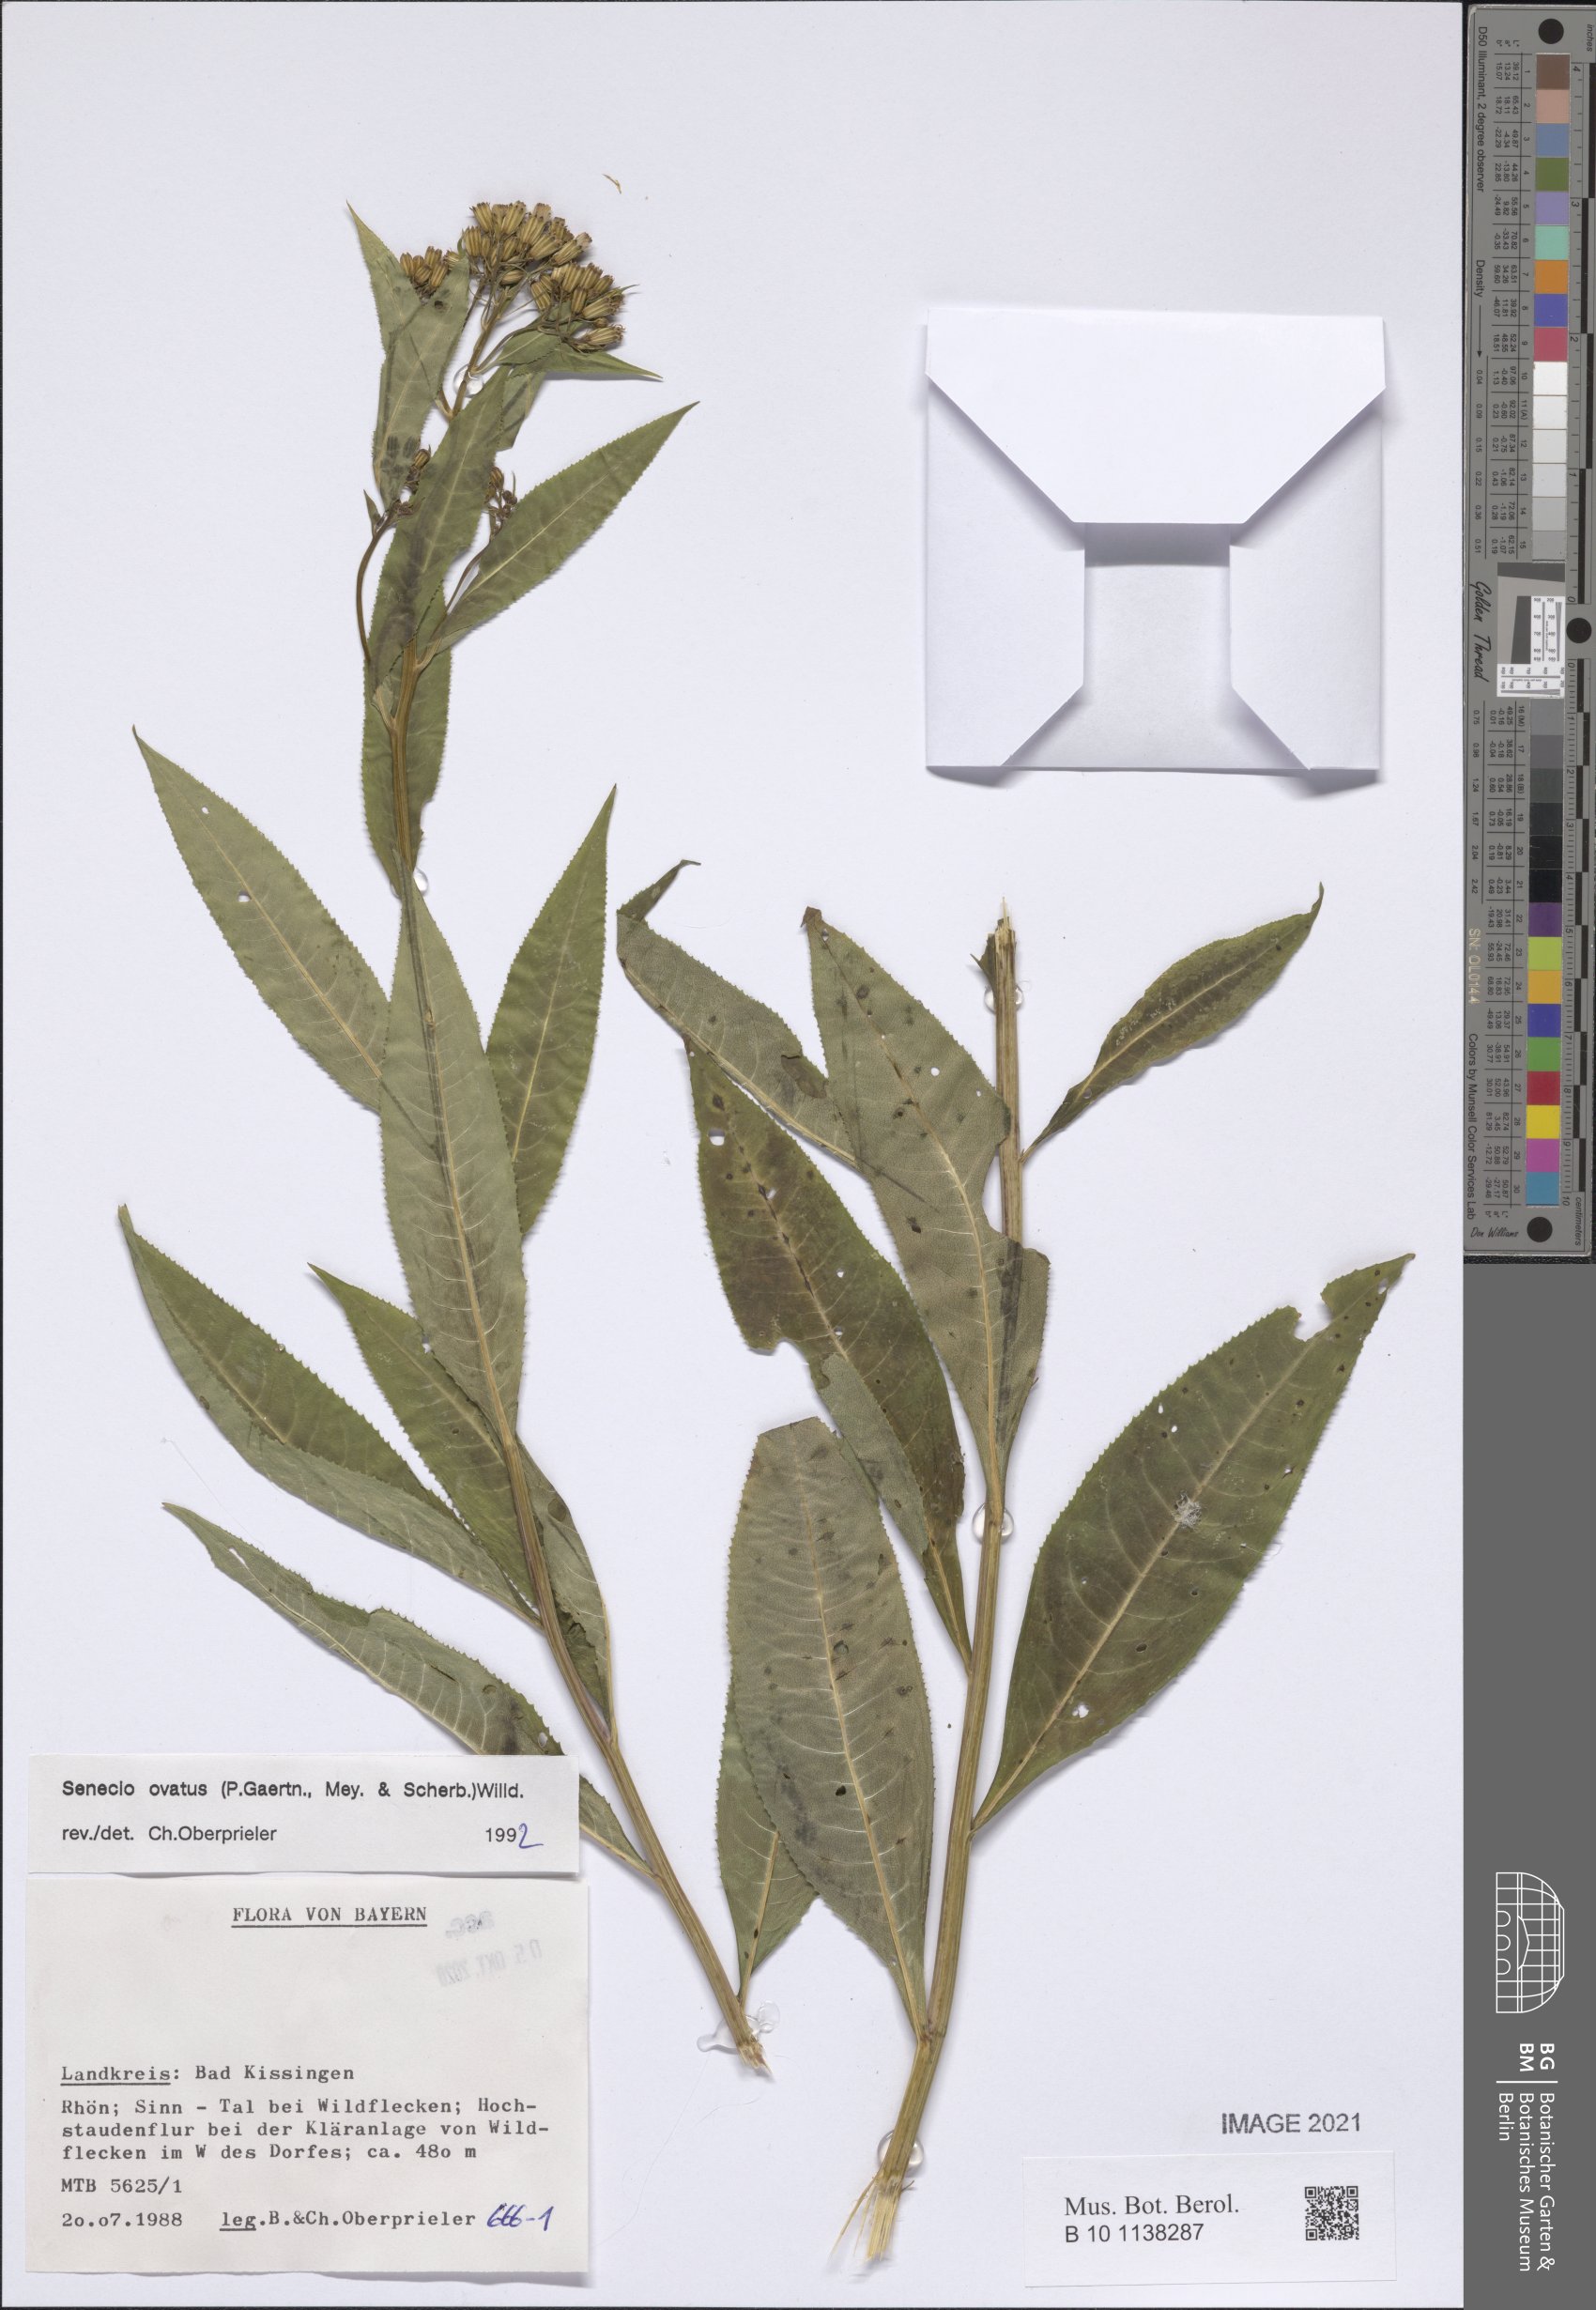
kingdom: Plantae
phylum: Tracheophyta
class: Magnoliopsida
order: Asterales
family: Asteraceae
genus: Senecio
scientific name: Senecio ovatus
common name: Wood ragwort
